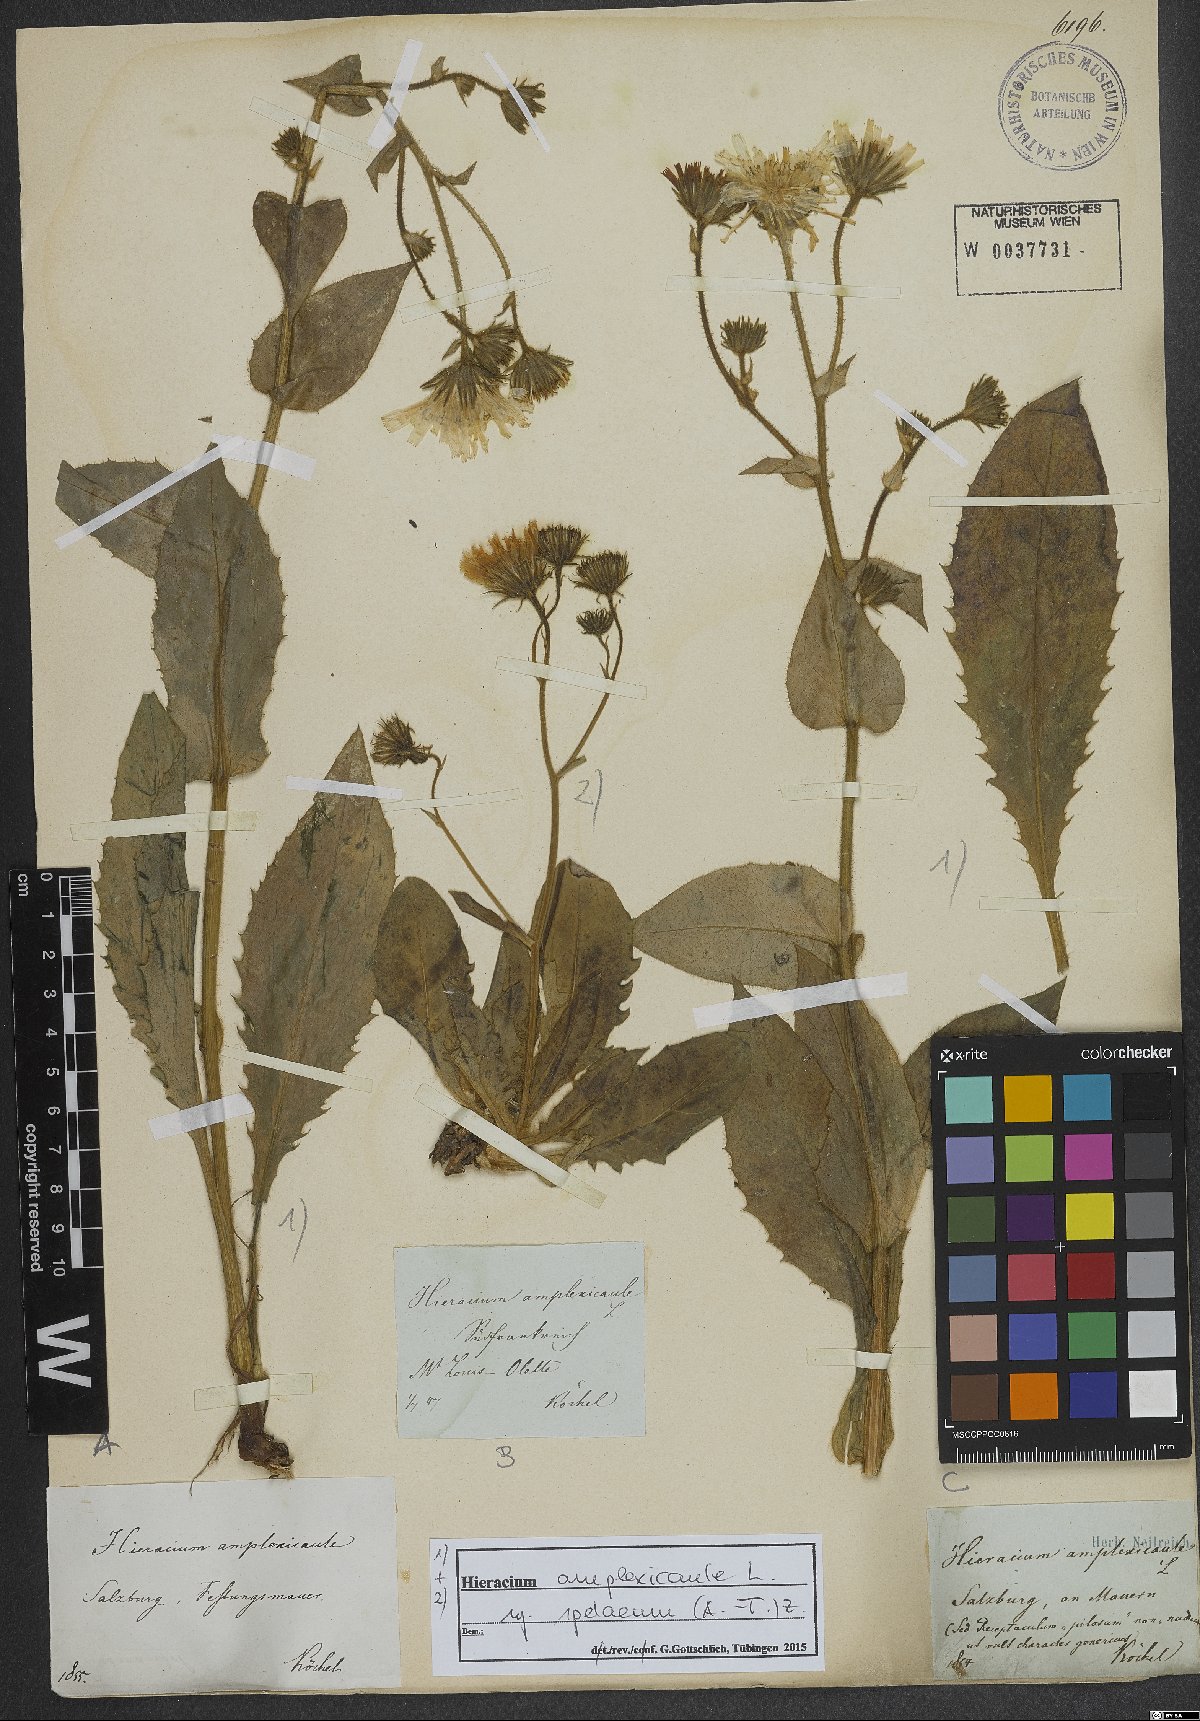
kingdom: Plantae
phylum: Tracheophyta
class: Magnoliopsida
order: Asterales
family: Asteraceae
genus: Hieracium
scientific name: Hieracium pulmonarioides
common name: Wall hawkweed
